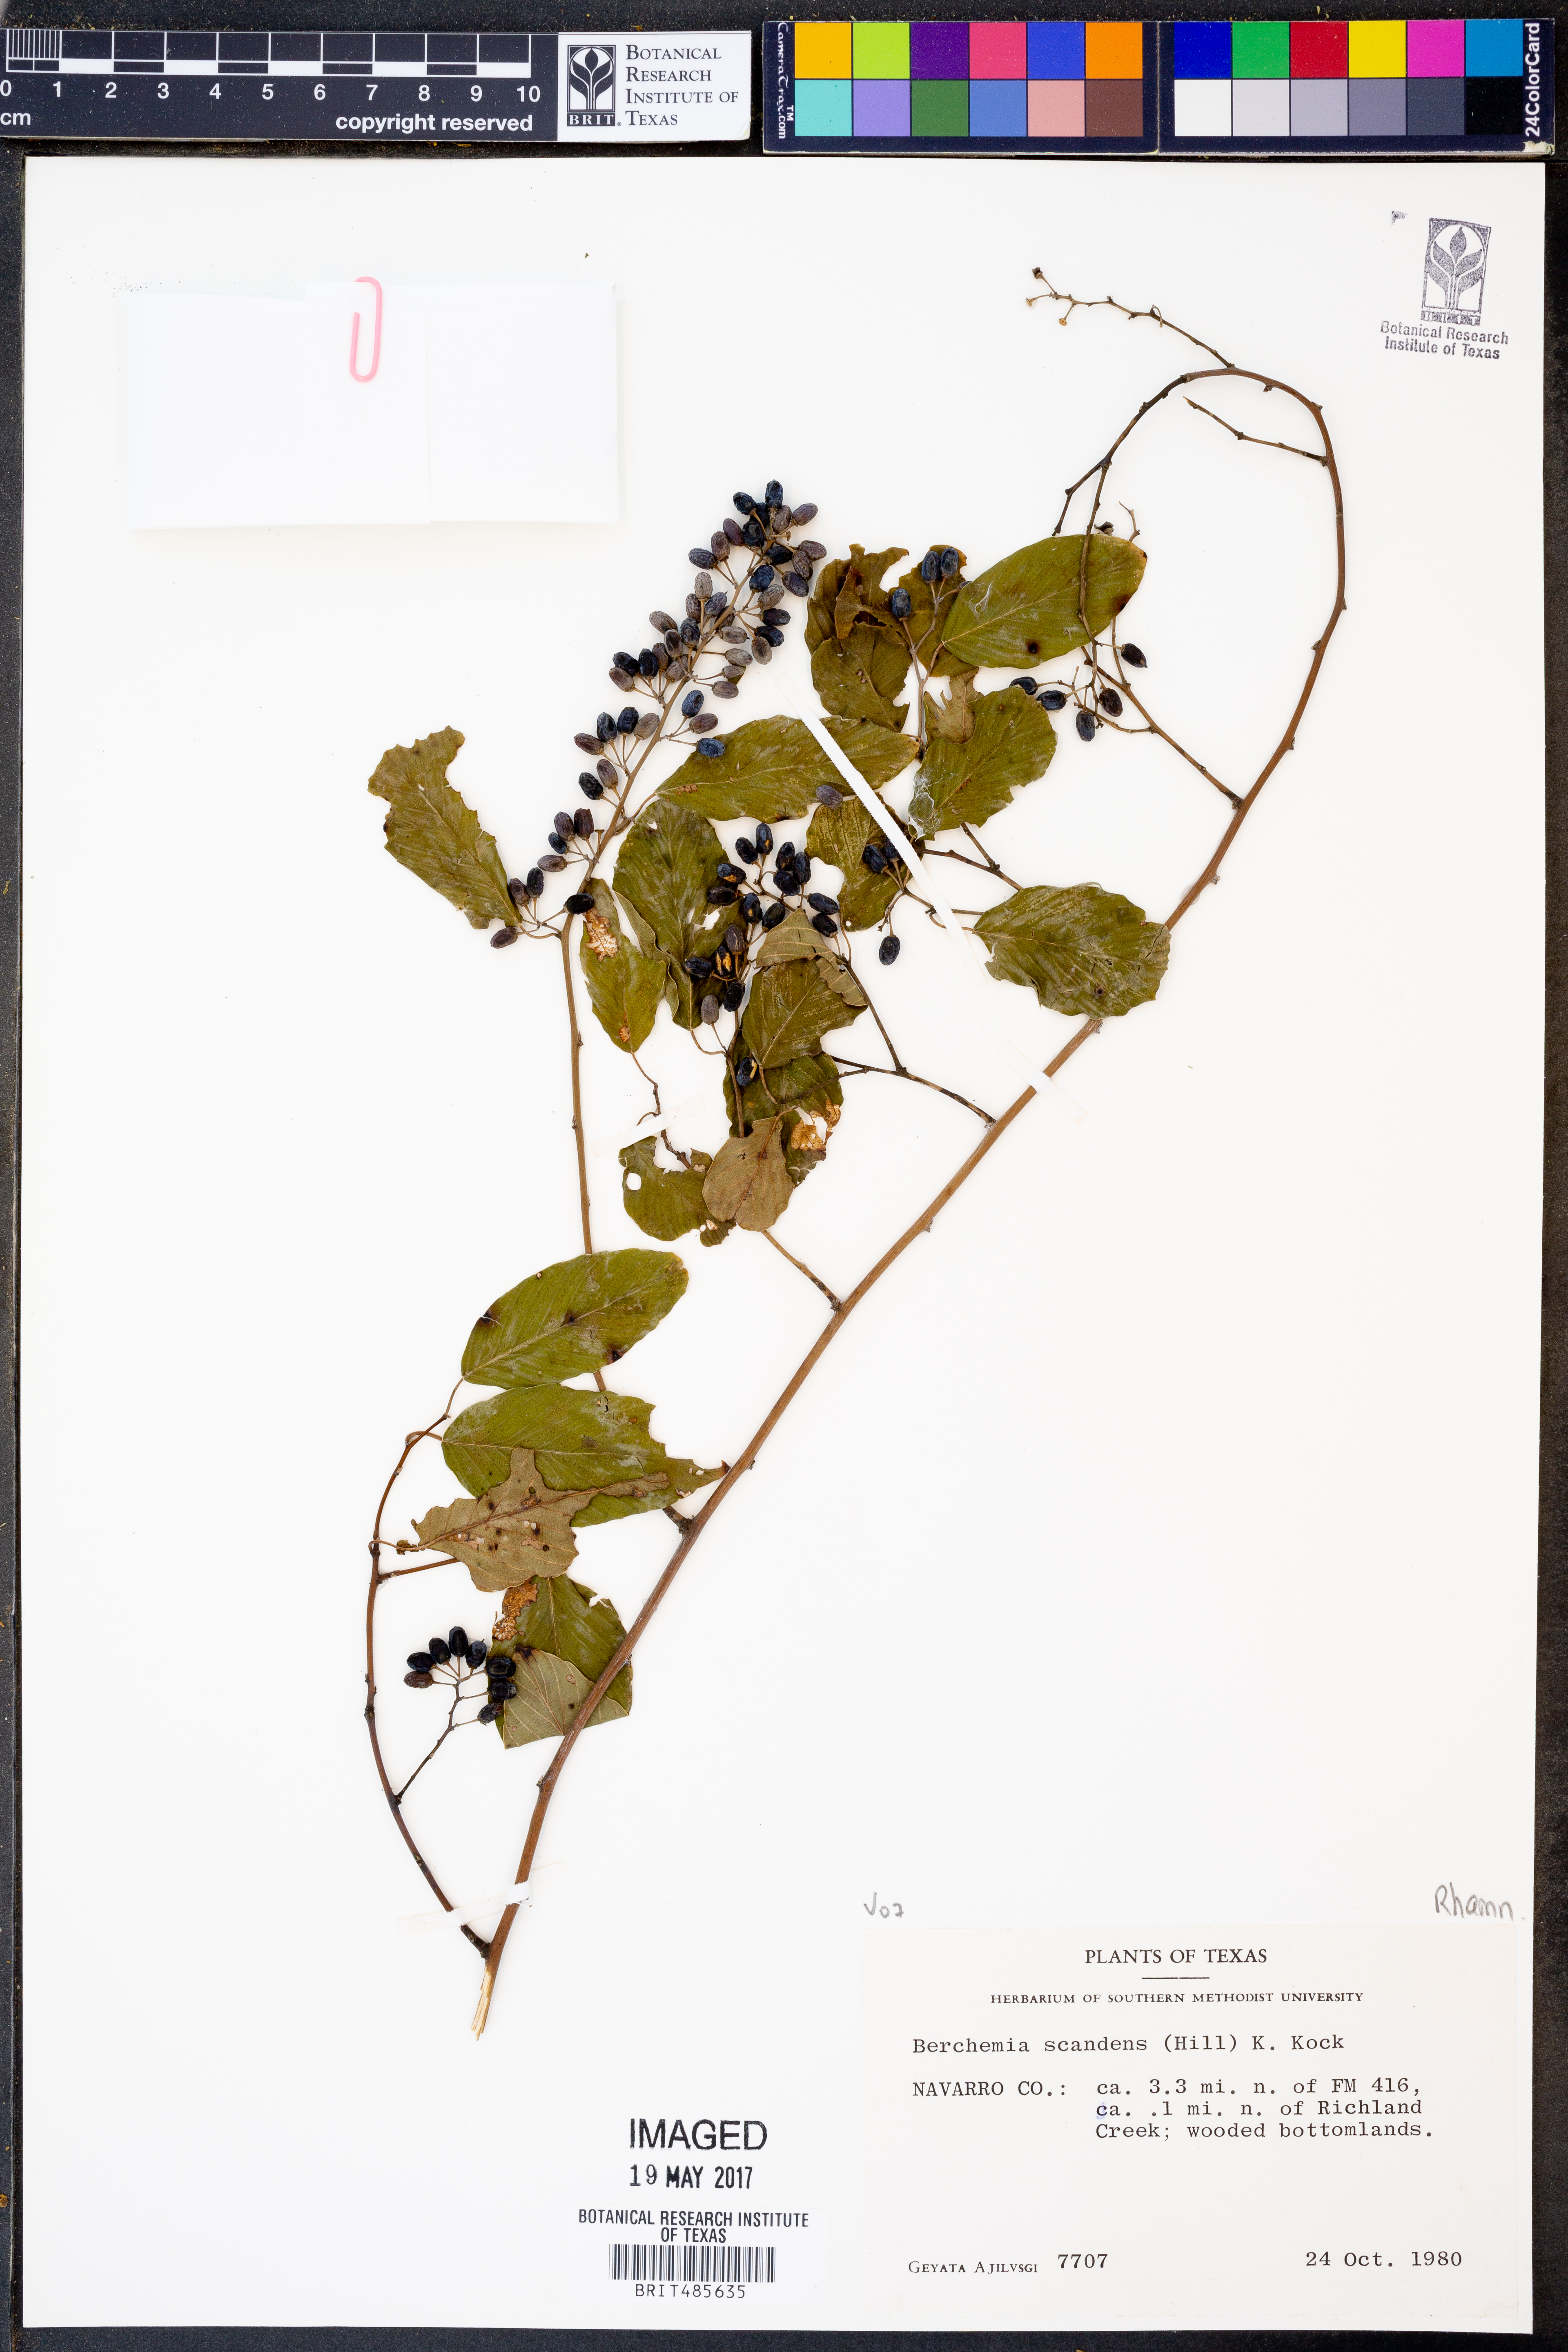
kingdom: Plantae
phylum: Tracheophyta
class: Magnoliopsida
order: Rosales
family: Rhamnaceae
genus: Berchemia
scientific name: Berchemia scandens
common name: Supplejack
